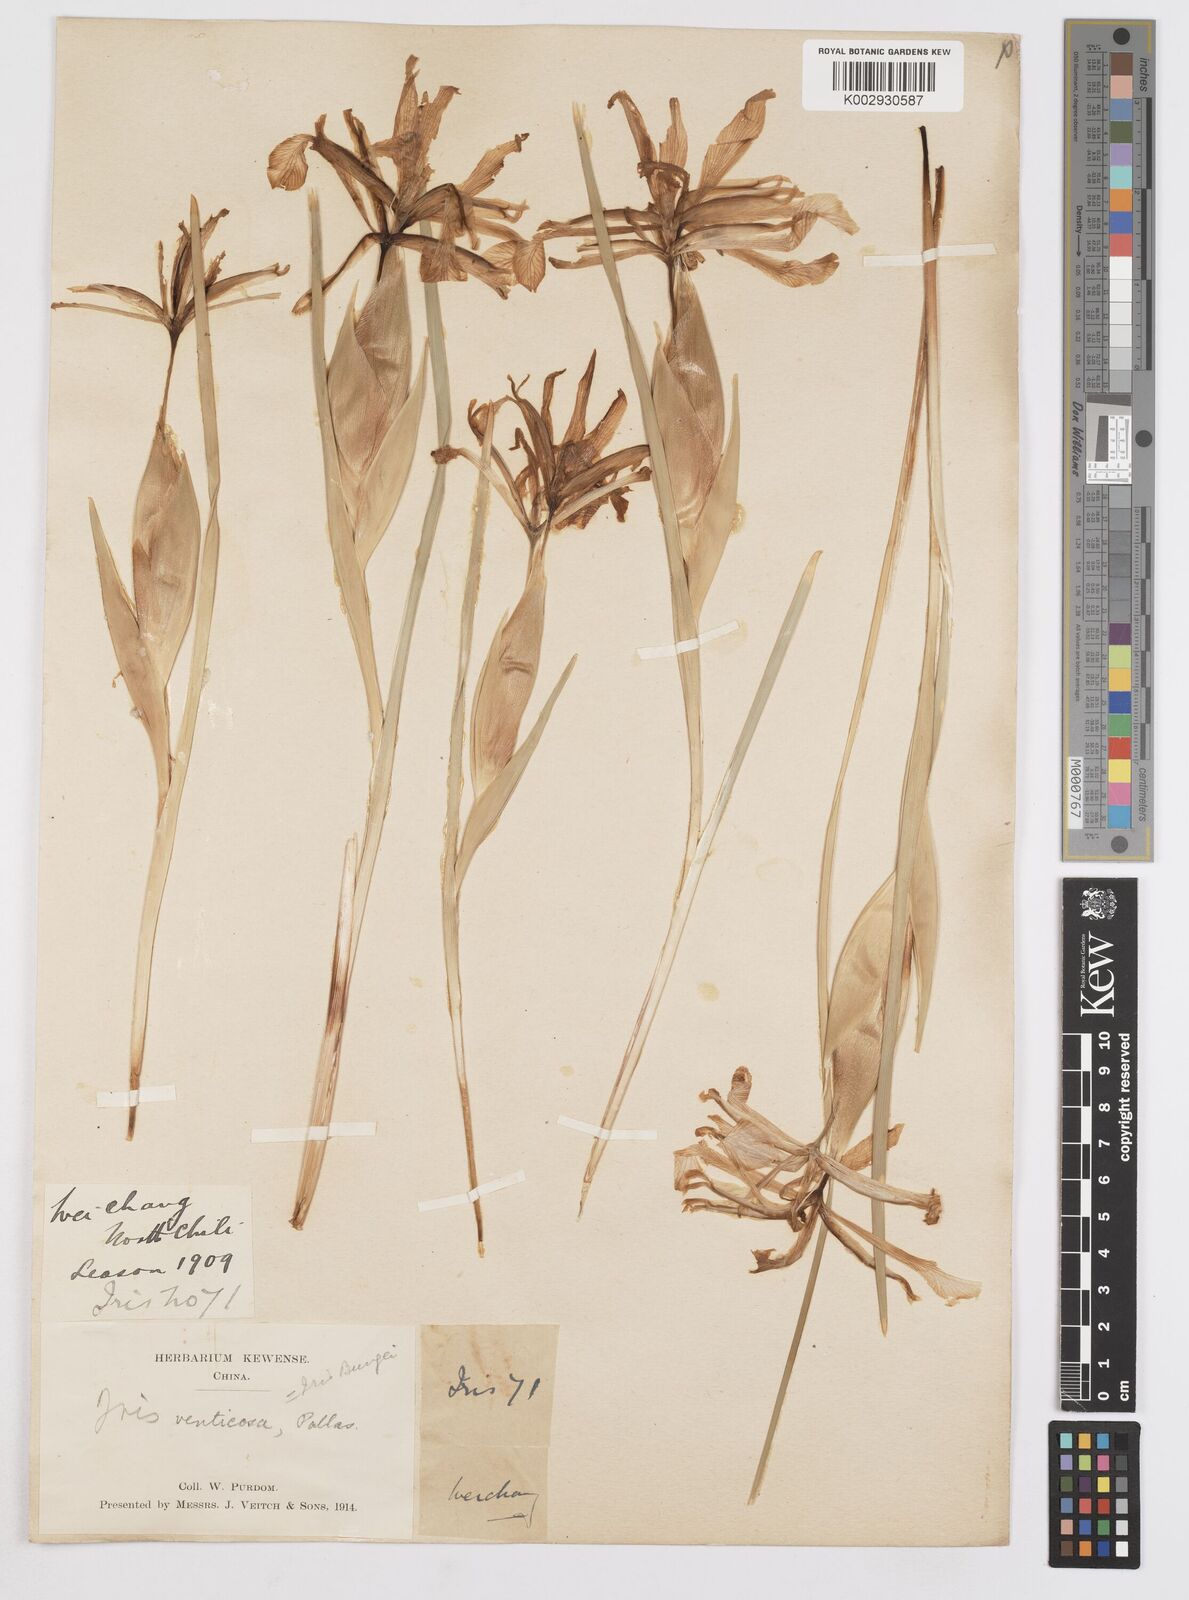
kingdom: Plantae
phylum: Tracheophyta
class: Liliopsida
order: Asparagales
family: Iridaceae
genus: Iris
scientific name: Iris ventricosa
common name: Purple-flower iris
